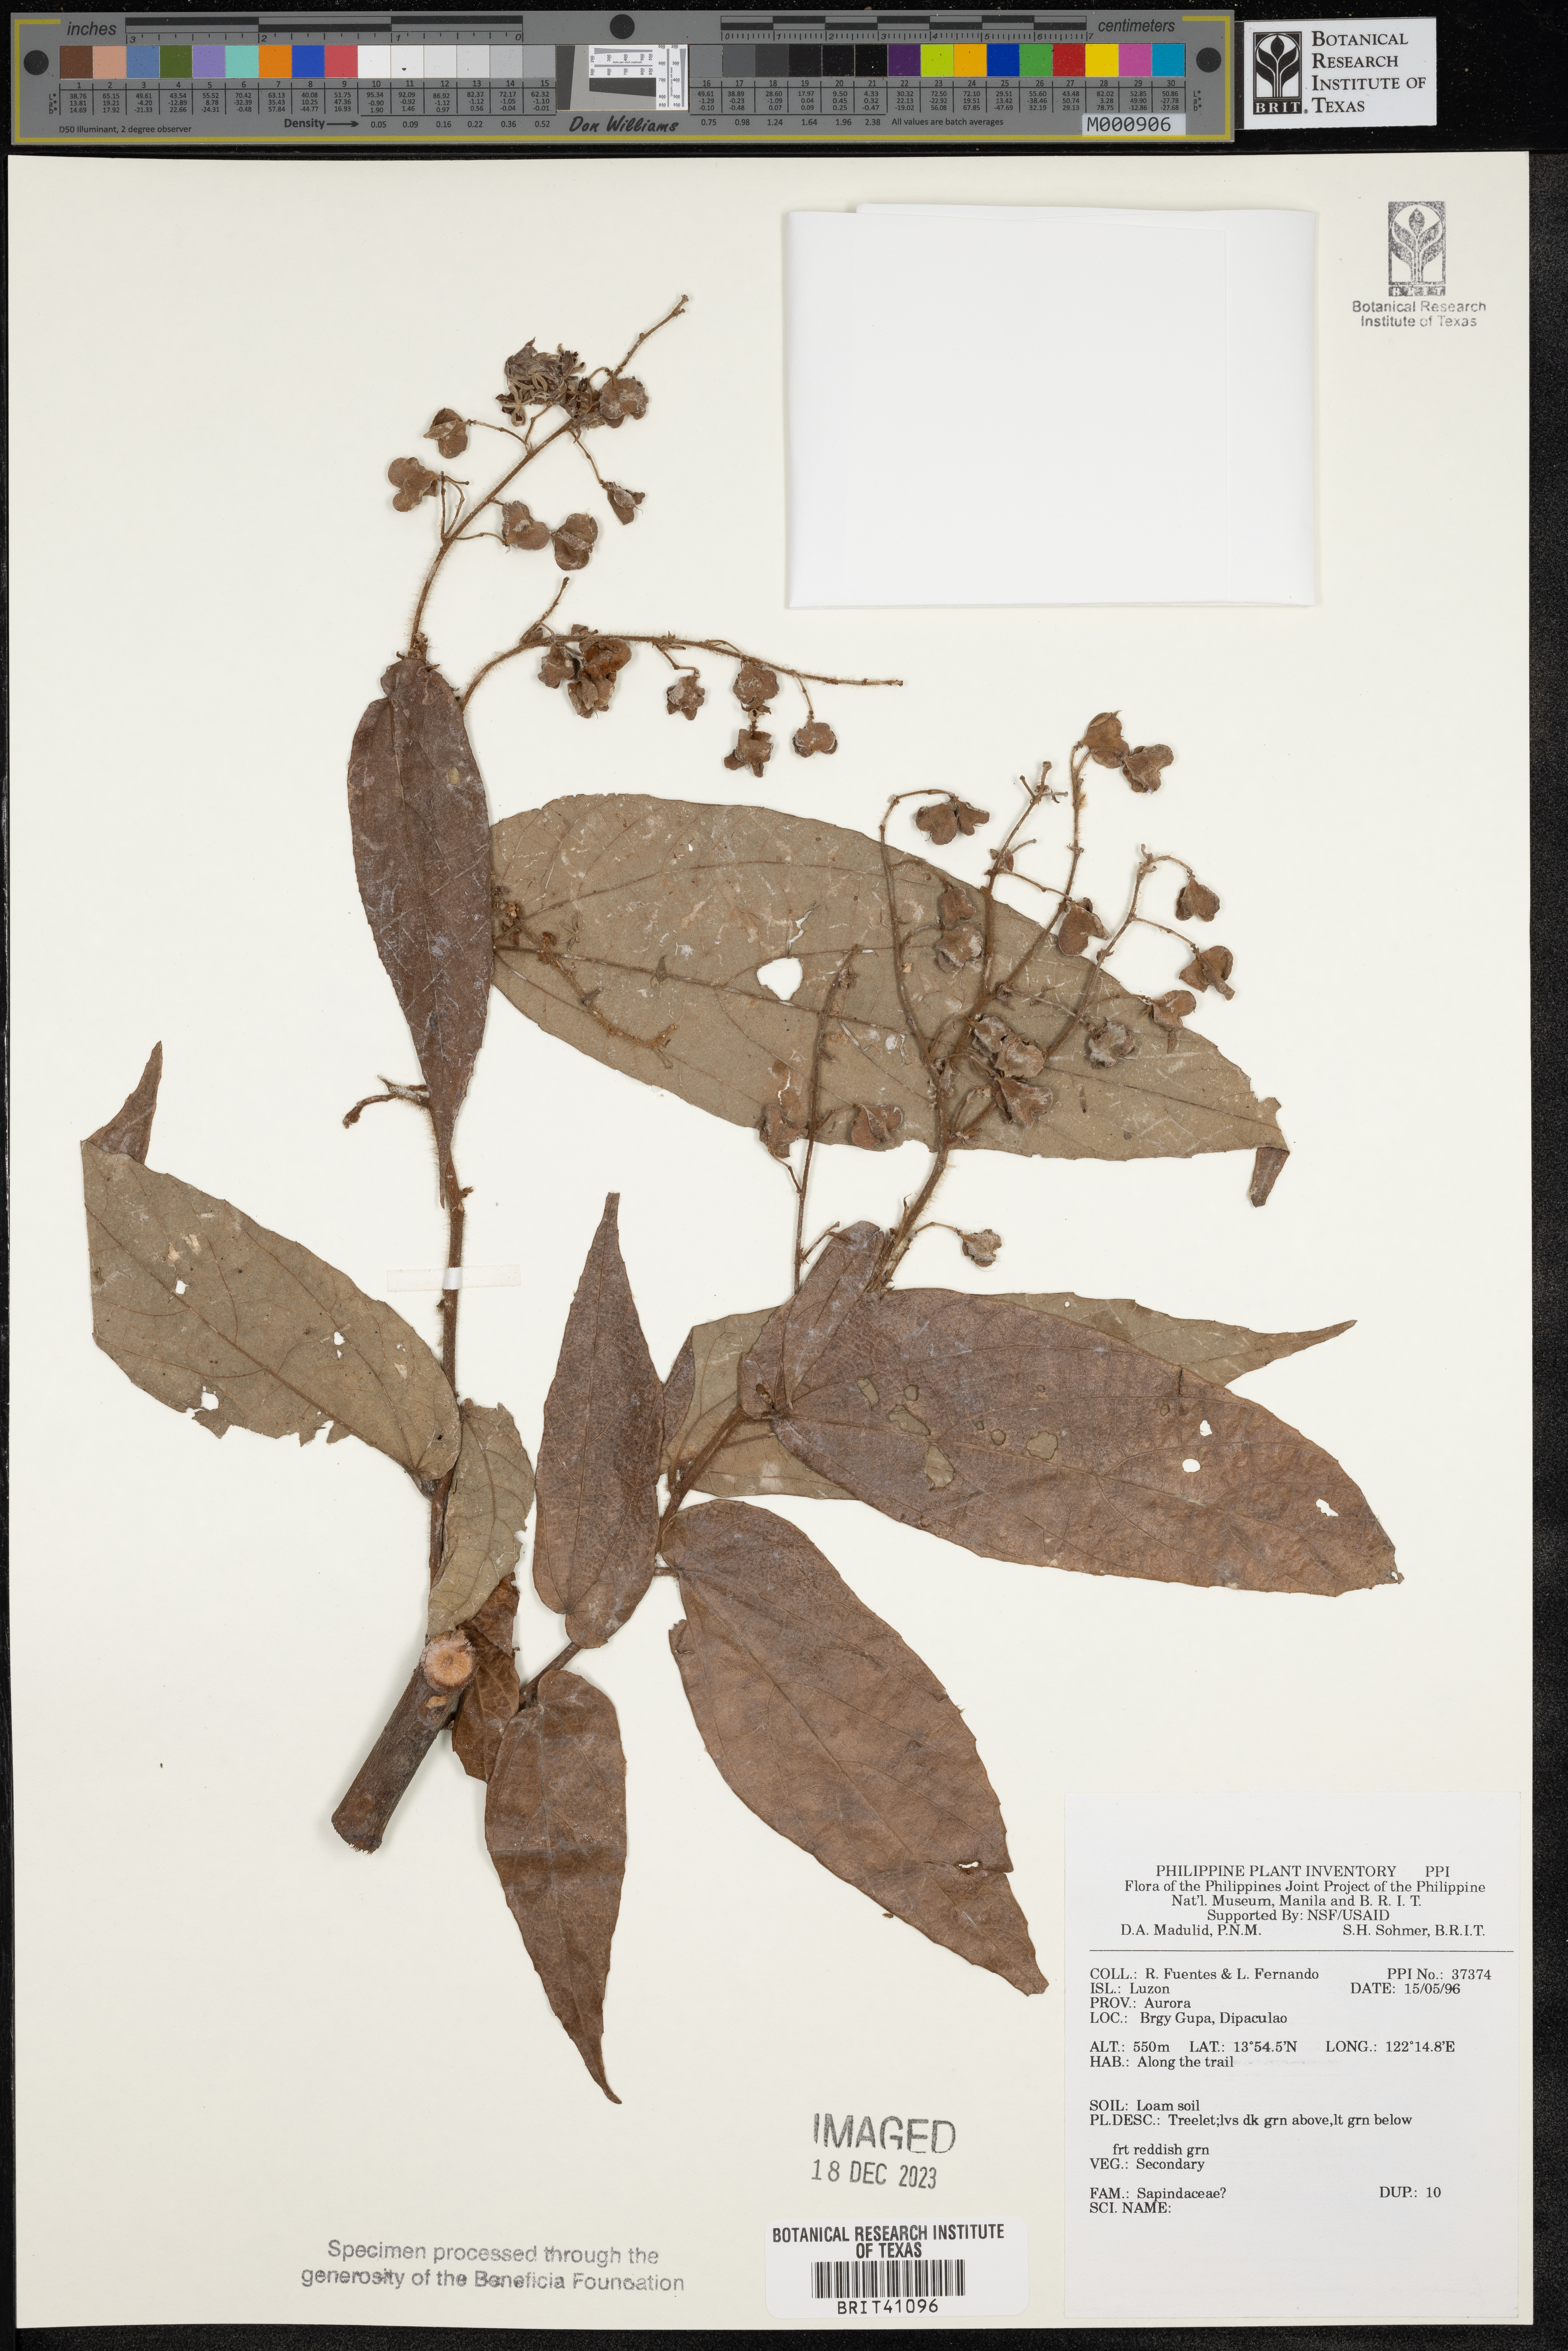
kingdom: Plantae
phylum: Tracheophyta
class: Magnoliopsida
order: Sapindales
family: Sapindaceae
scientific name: Sapindaceae
